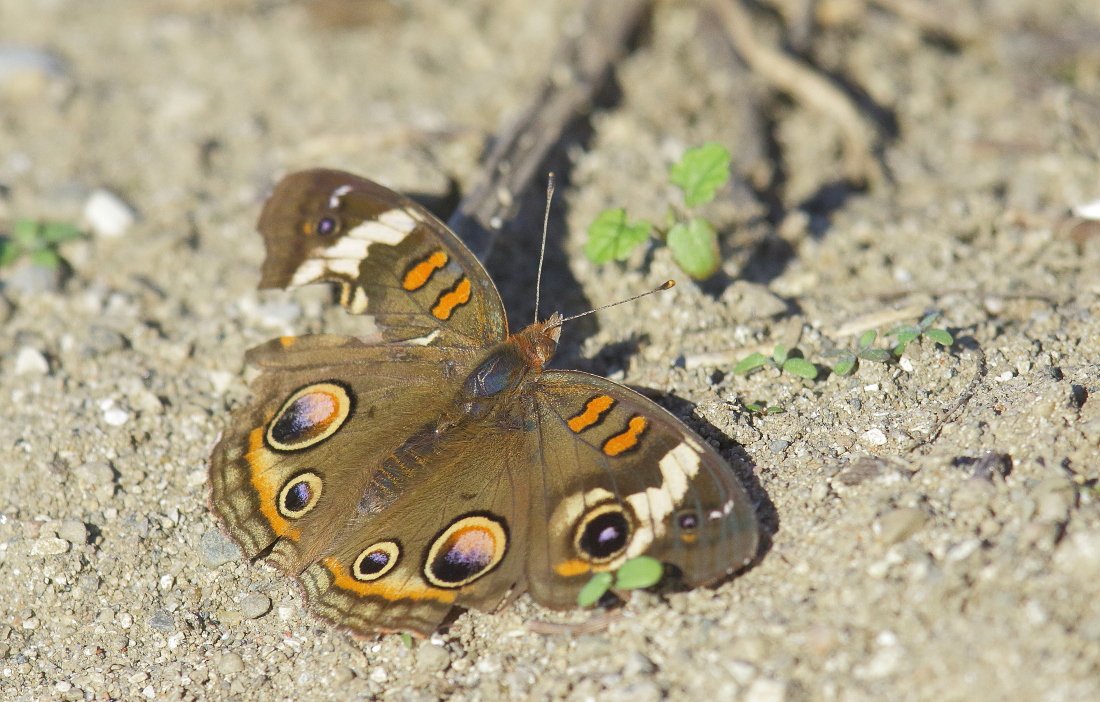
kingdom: Animalia
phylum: Arthropoda
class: Insecta
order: Lepidoptera
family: Nymphalidae
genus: Junonia
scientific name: Junonia coenia
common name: Common Buckeye
